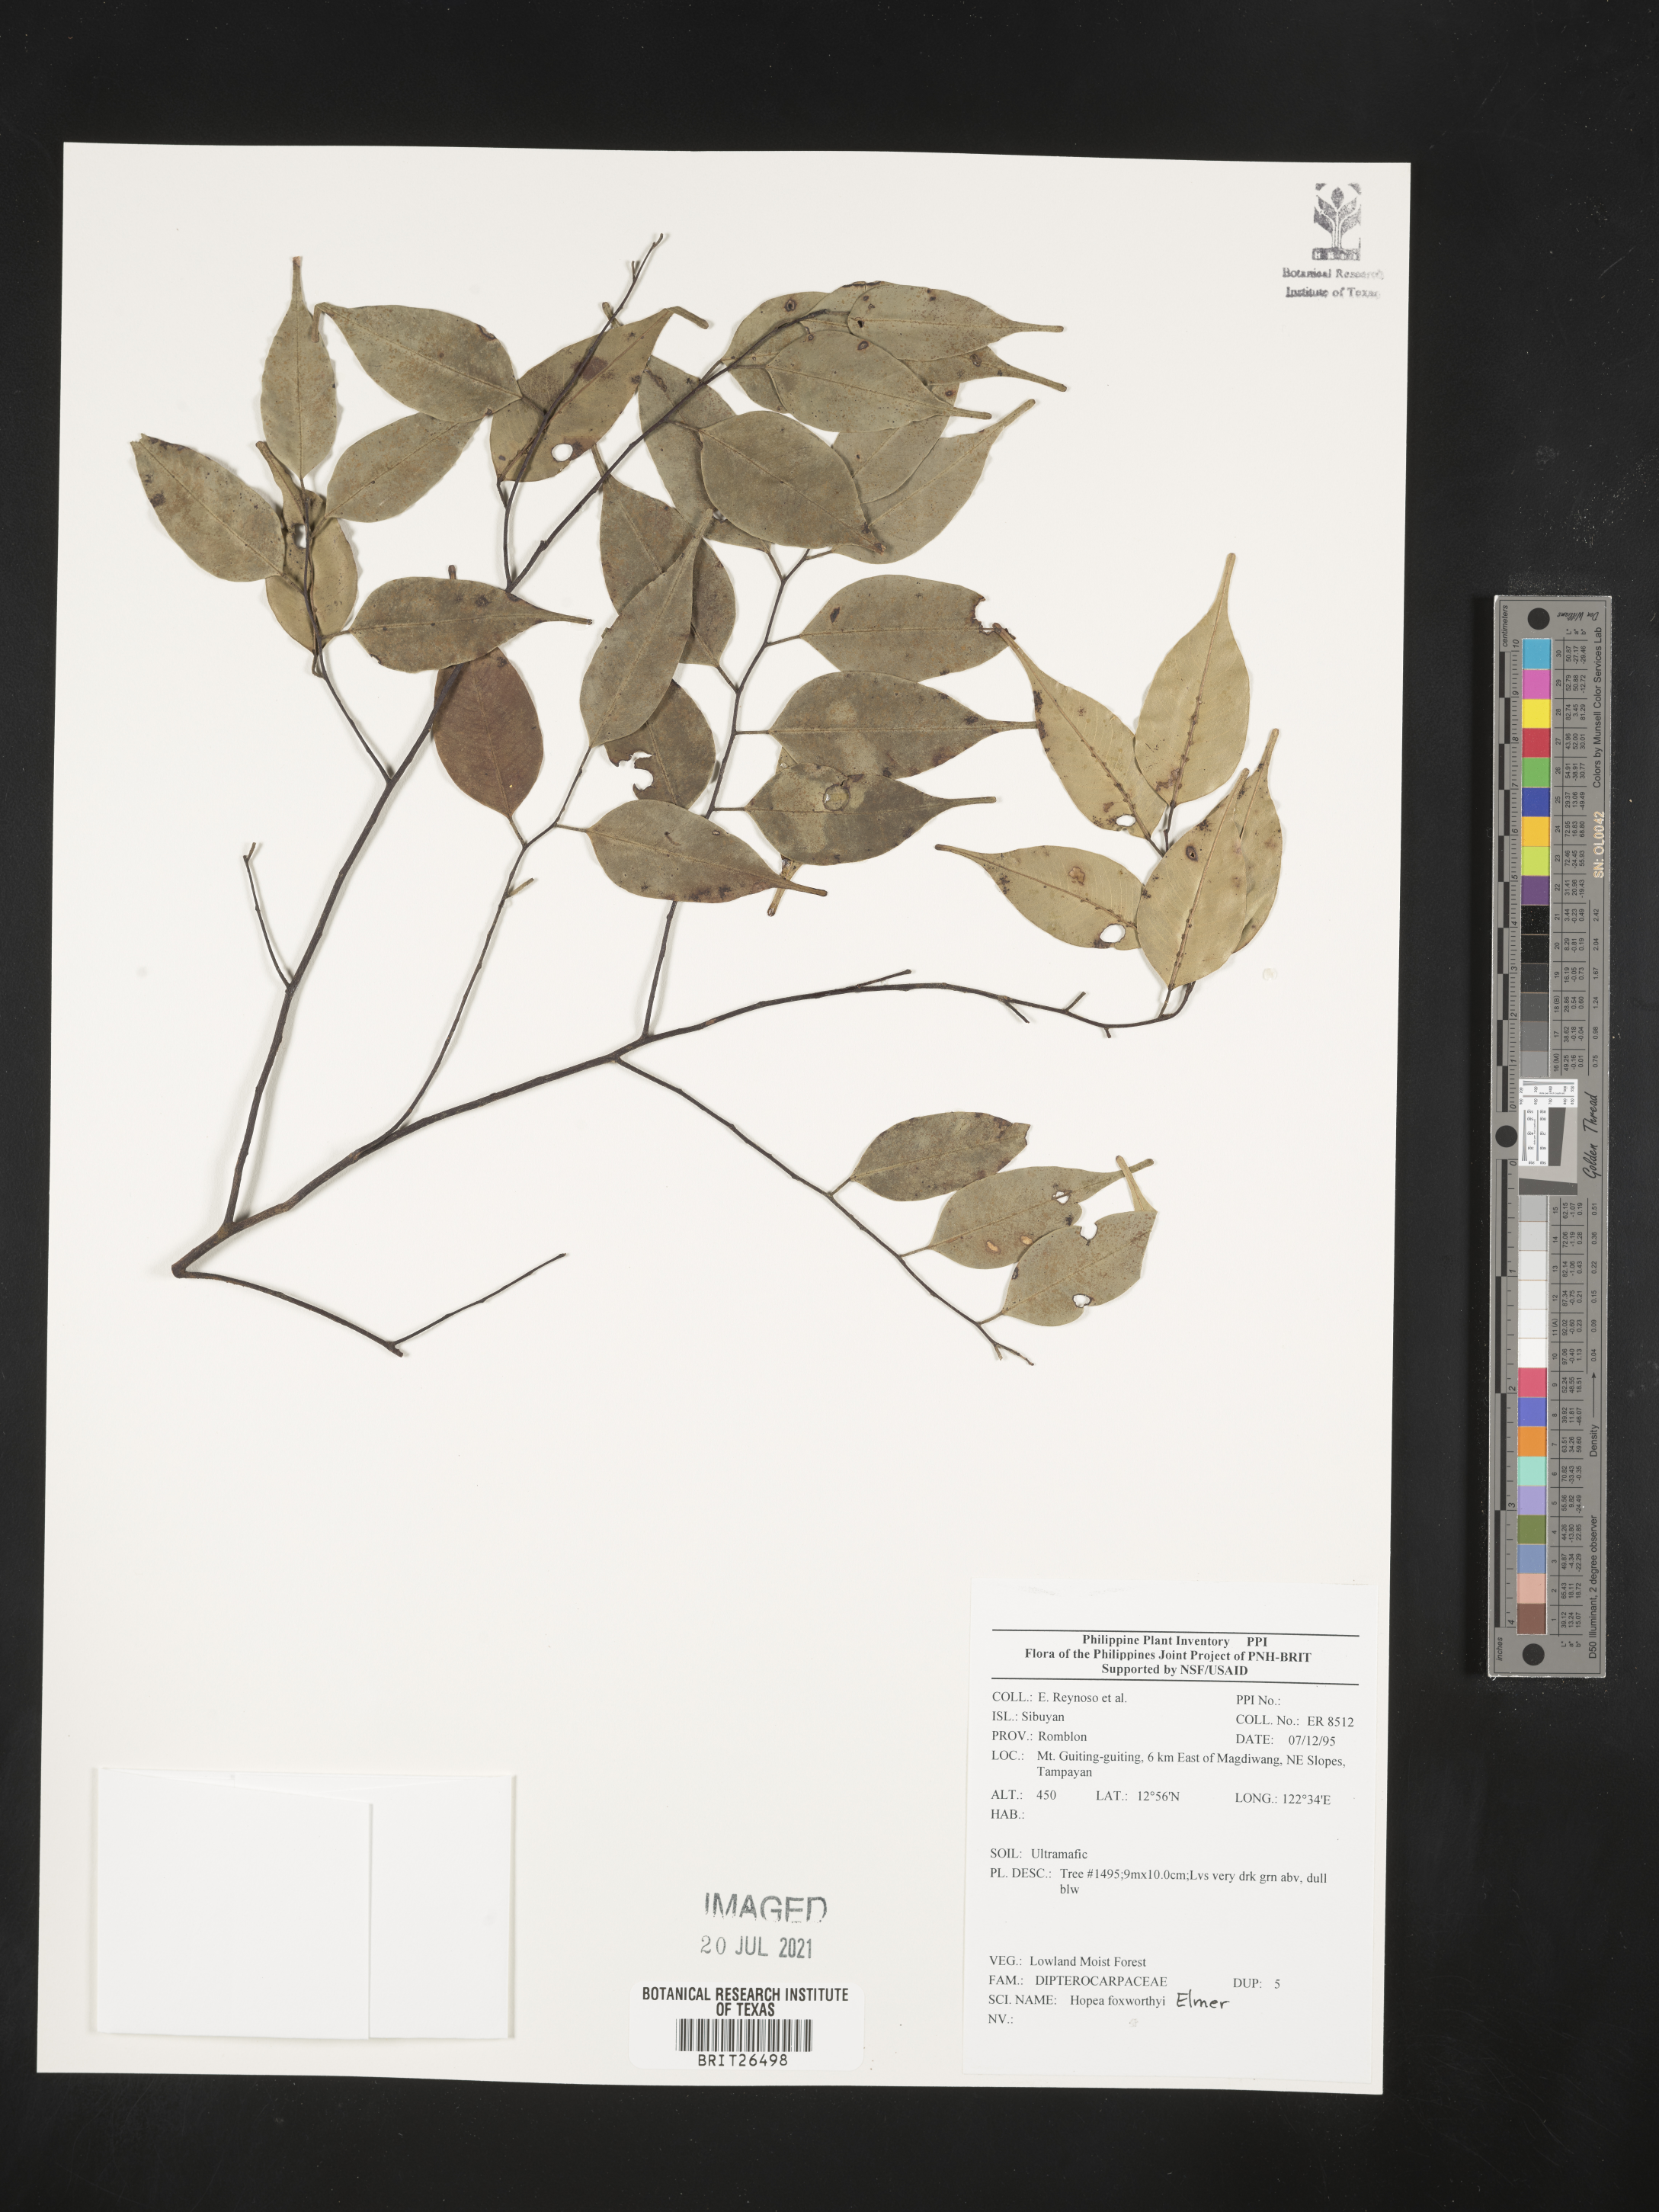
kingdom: Plantae
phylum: Tracheophyta
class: Magnoliopsida
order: Malvales
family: Dipterocarpaceae
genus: Hopea
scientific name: Hopea foxworthyi
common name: Dalingdingan
